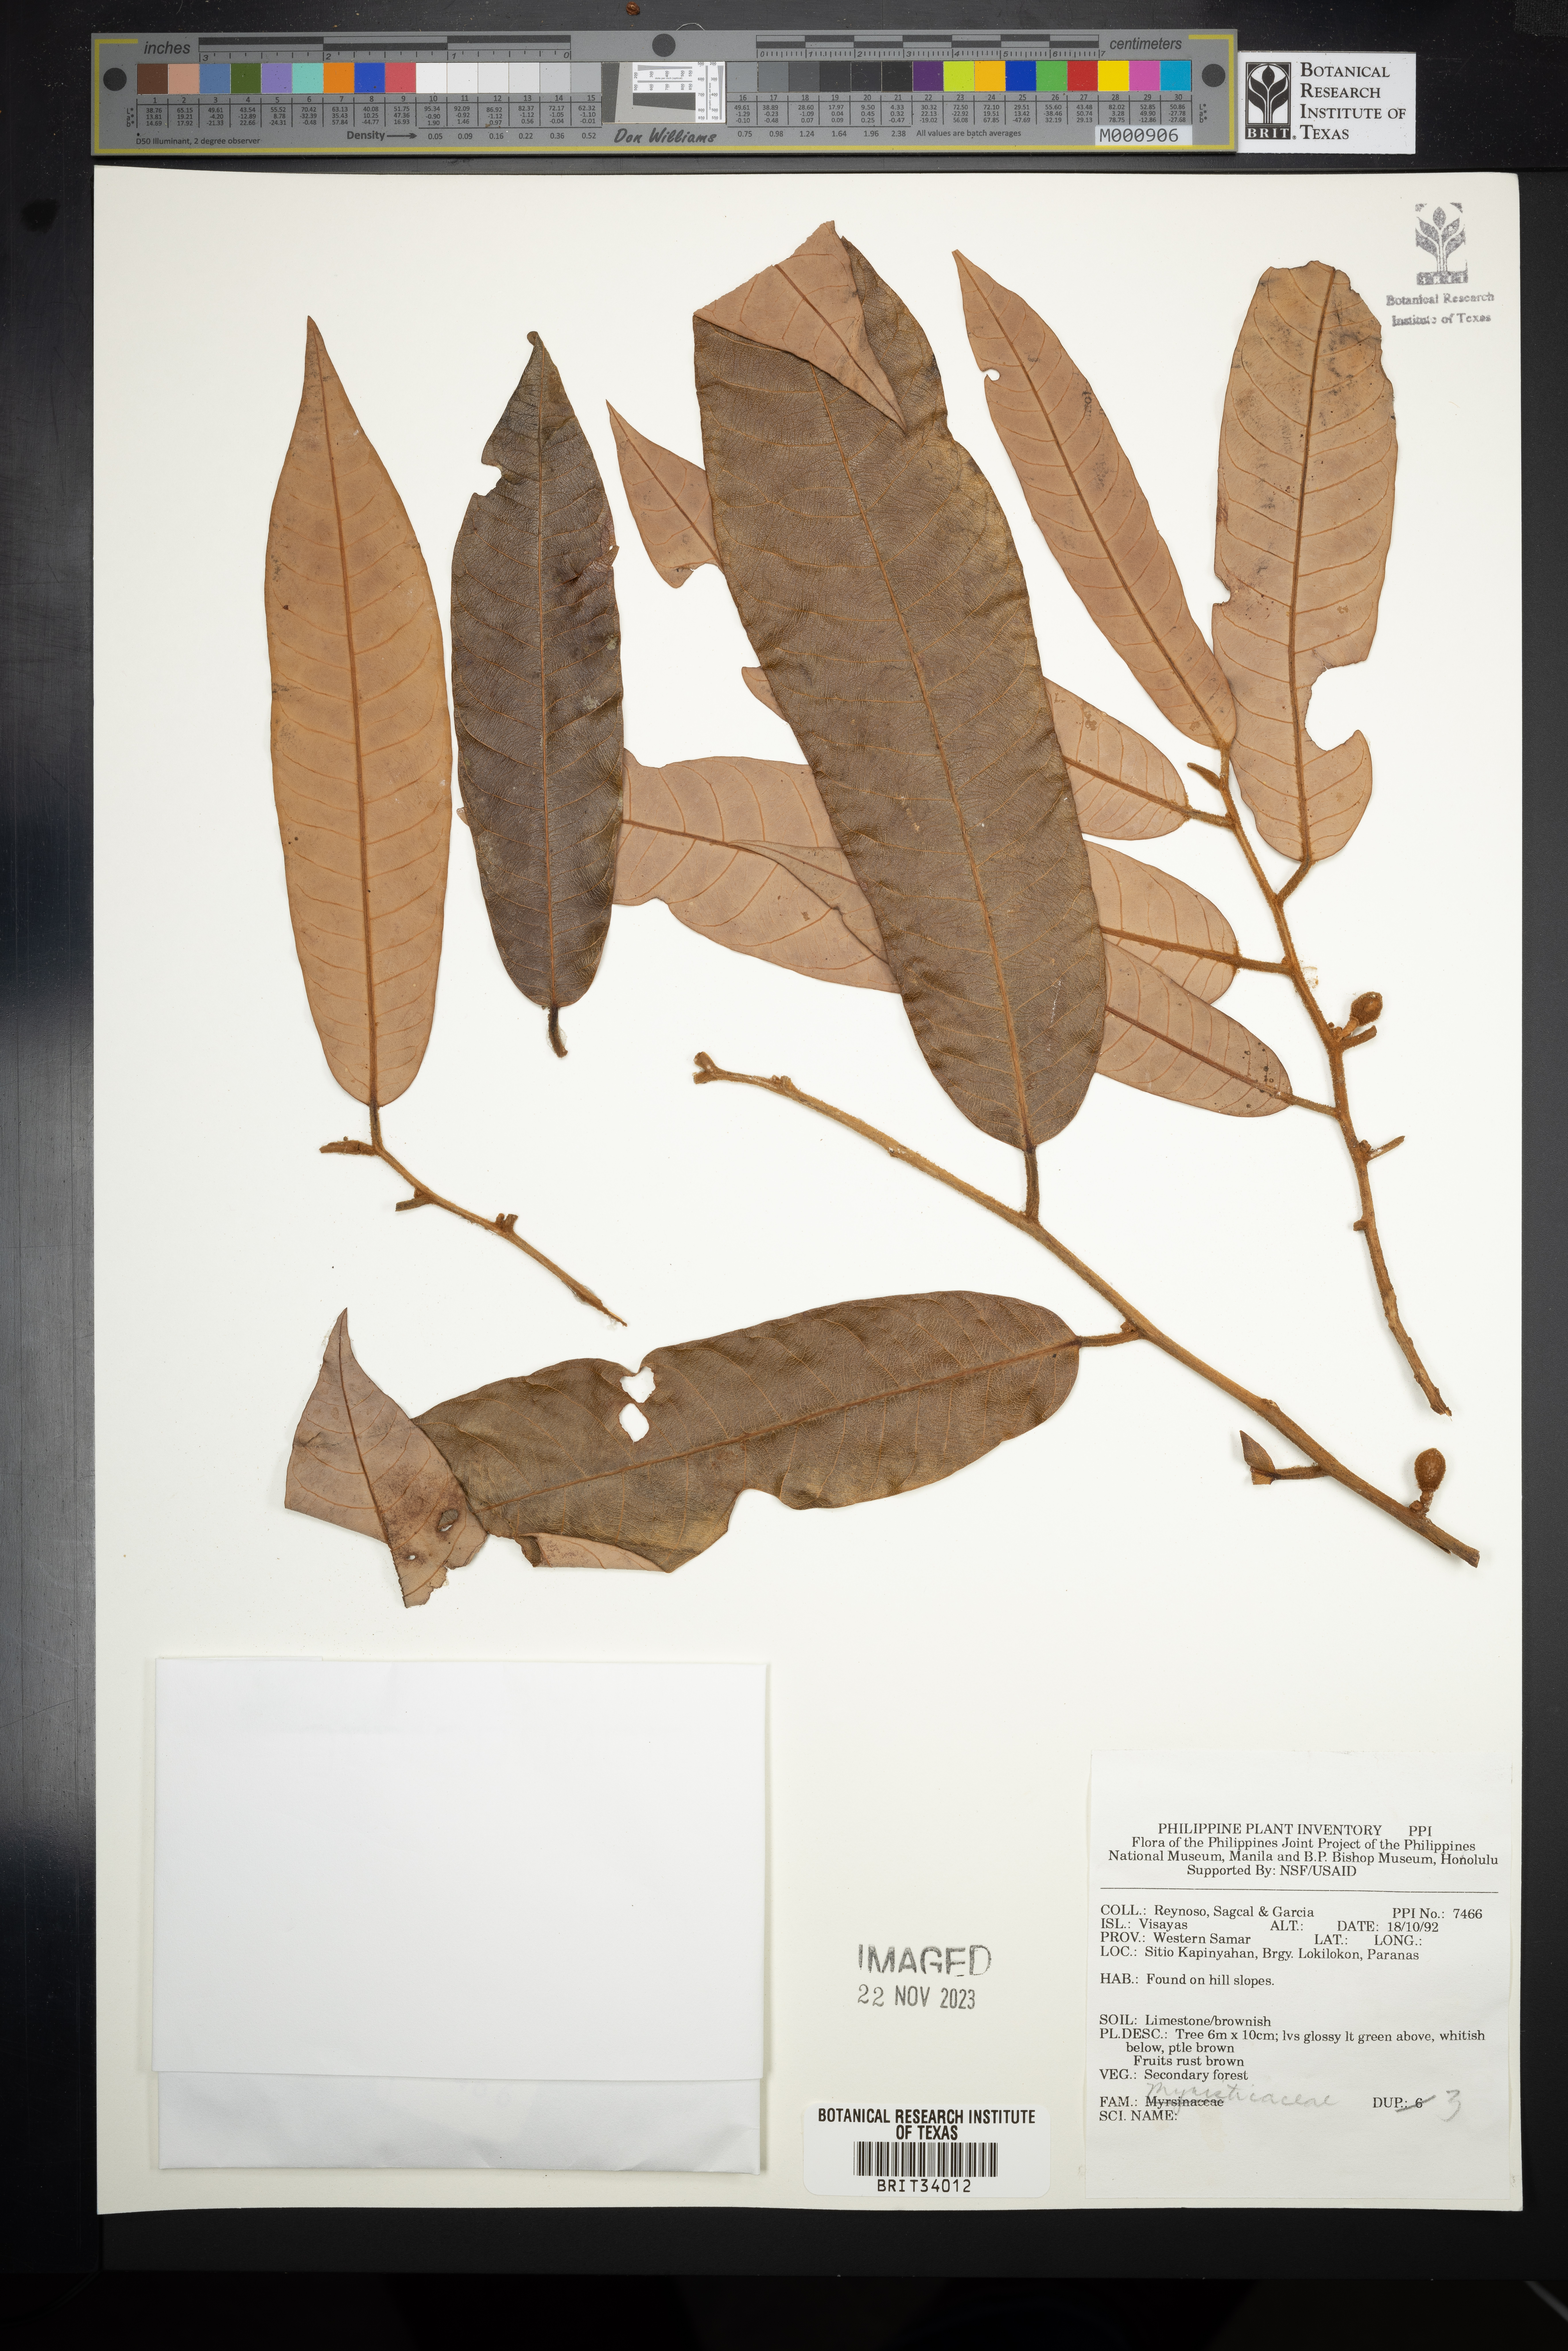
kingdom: Plantae
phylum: Tracheophyta
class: Magnoliopsida
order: Magnoliales
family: Myristicaceae
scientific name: Myristicaceae
